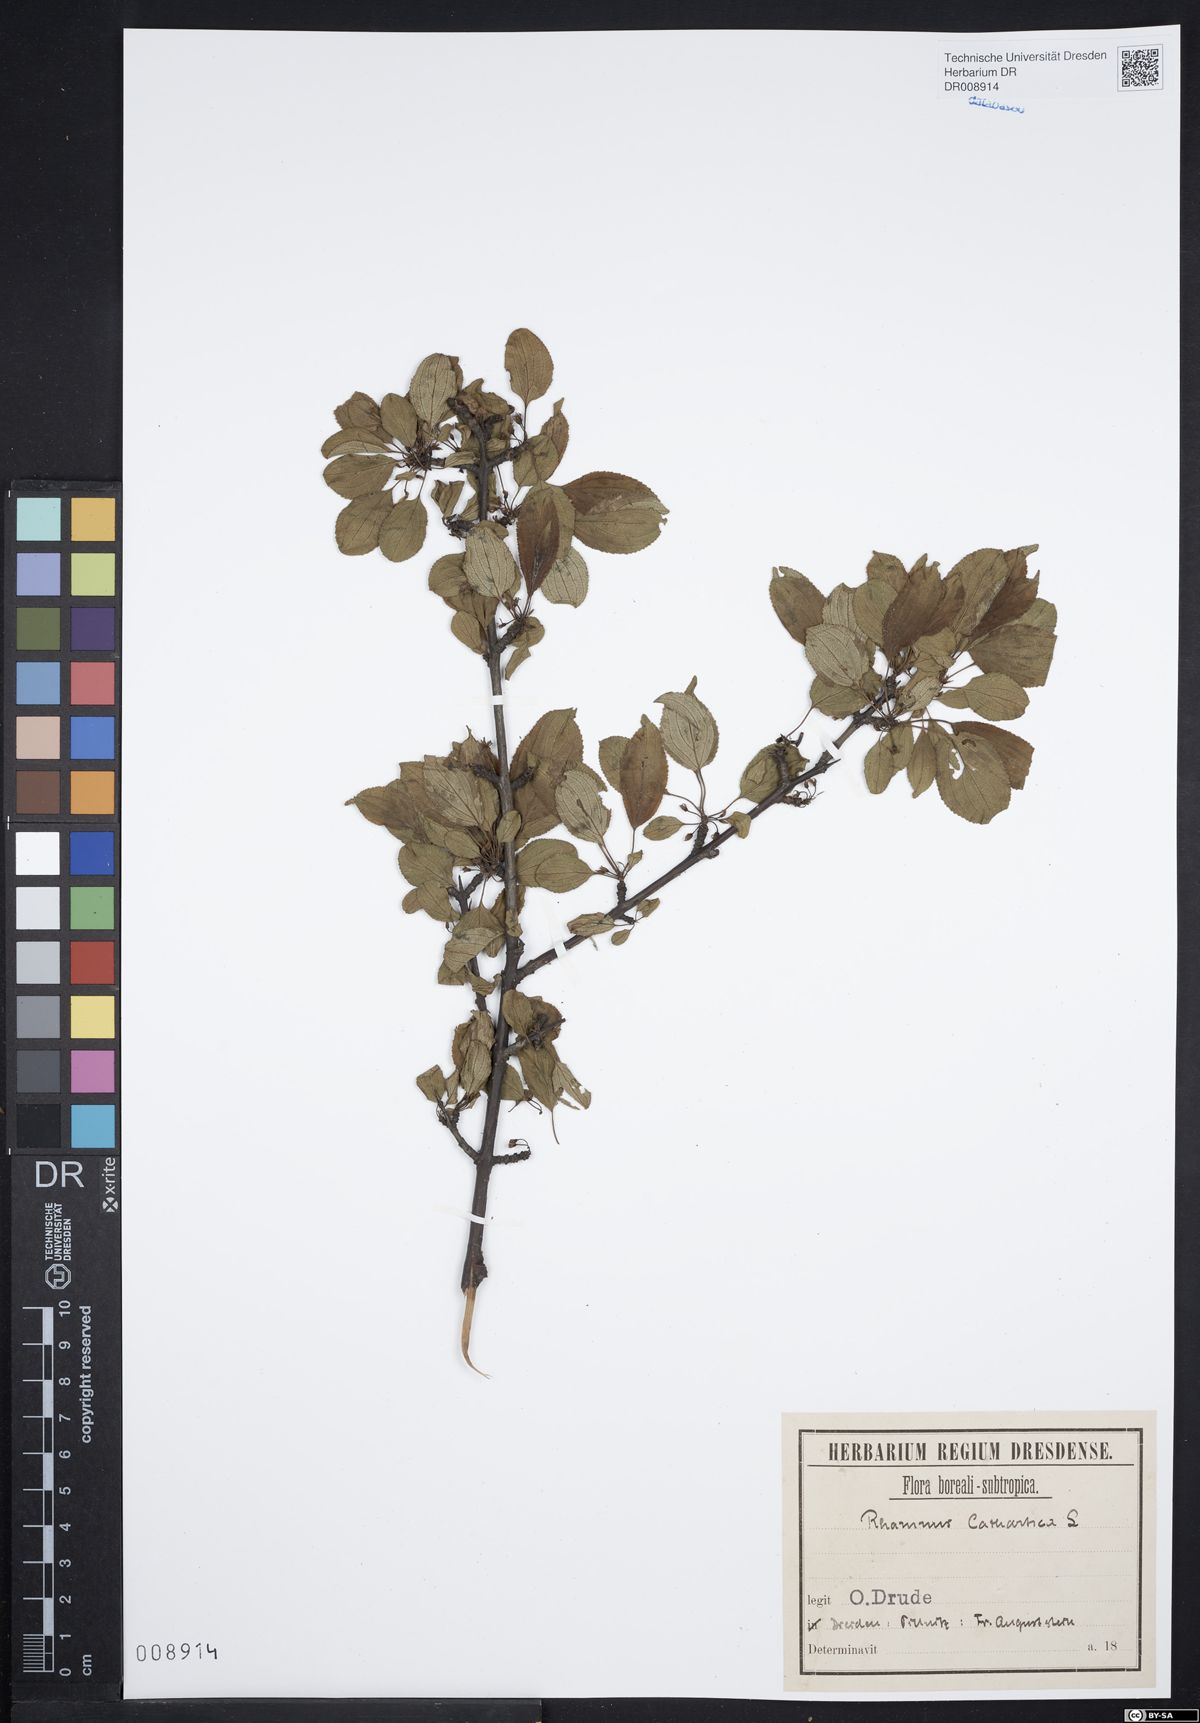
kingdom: Plantae
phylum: Tracheophyta
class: Magnoliopsida
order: Rosales
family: Rhamnaceae
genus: Rhamnus
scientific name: Rhamnus cathartica
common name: Common buckthorn
